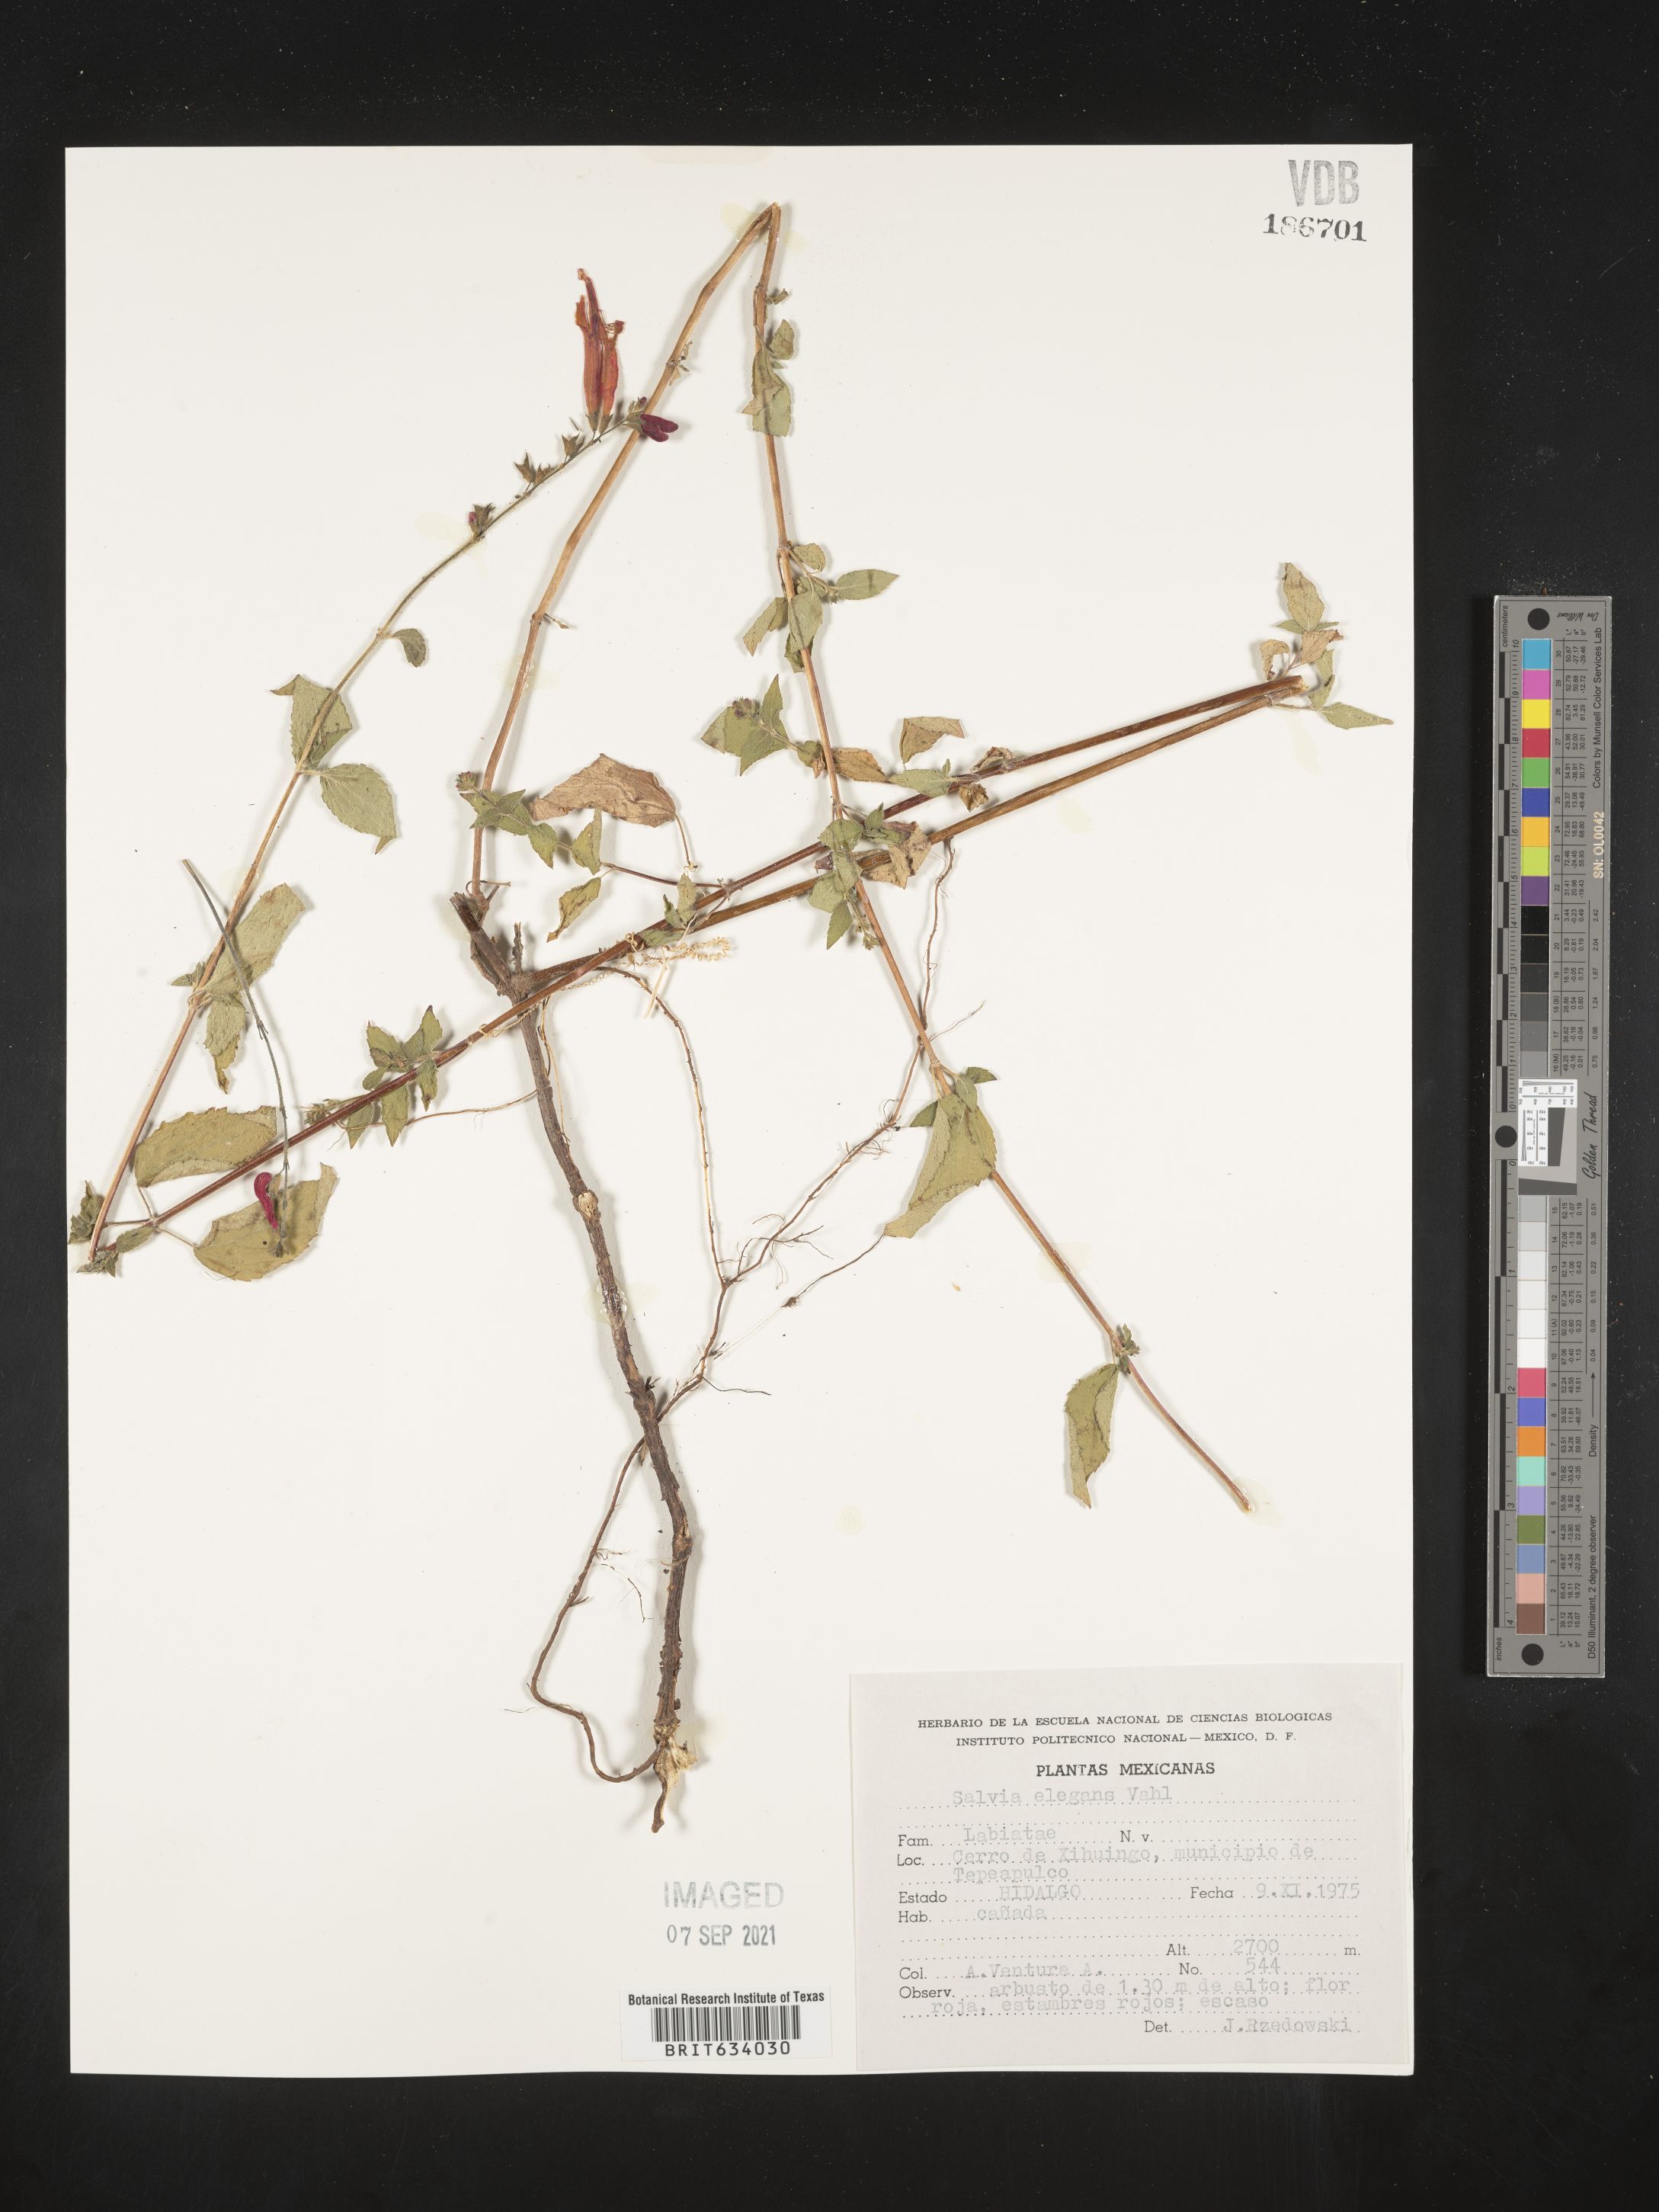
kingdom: Plantae
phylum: Tracheophyta
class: Magnoliopsida
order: Lamiales
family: Lamiaceae
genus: Salvia
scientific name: Salvia
